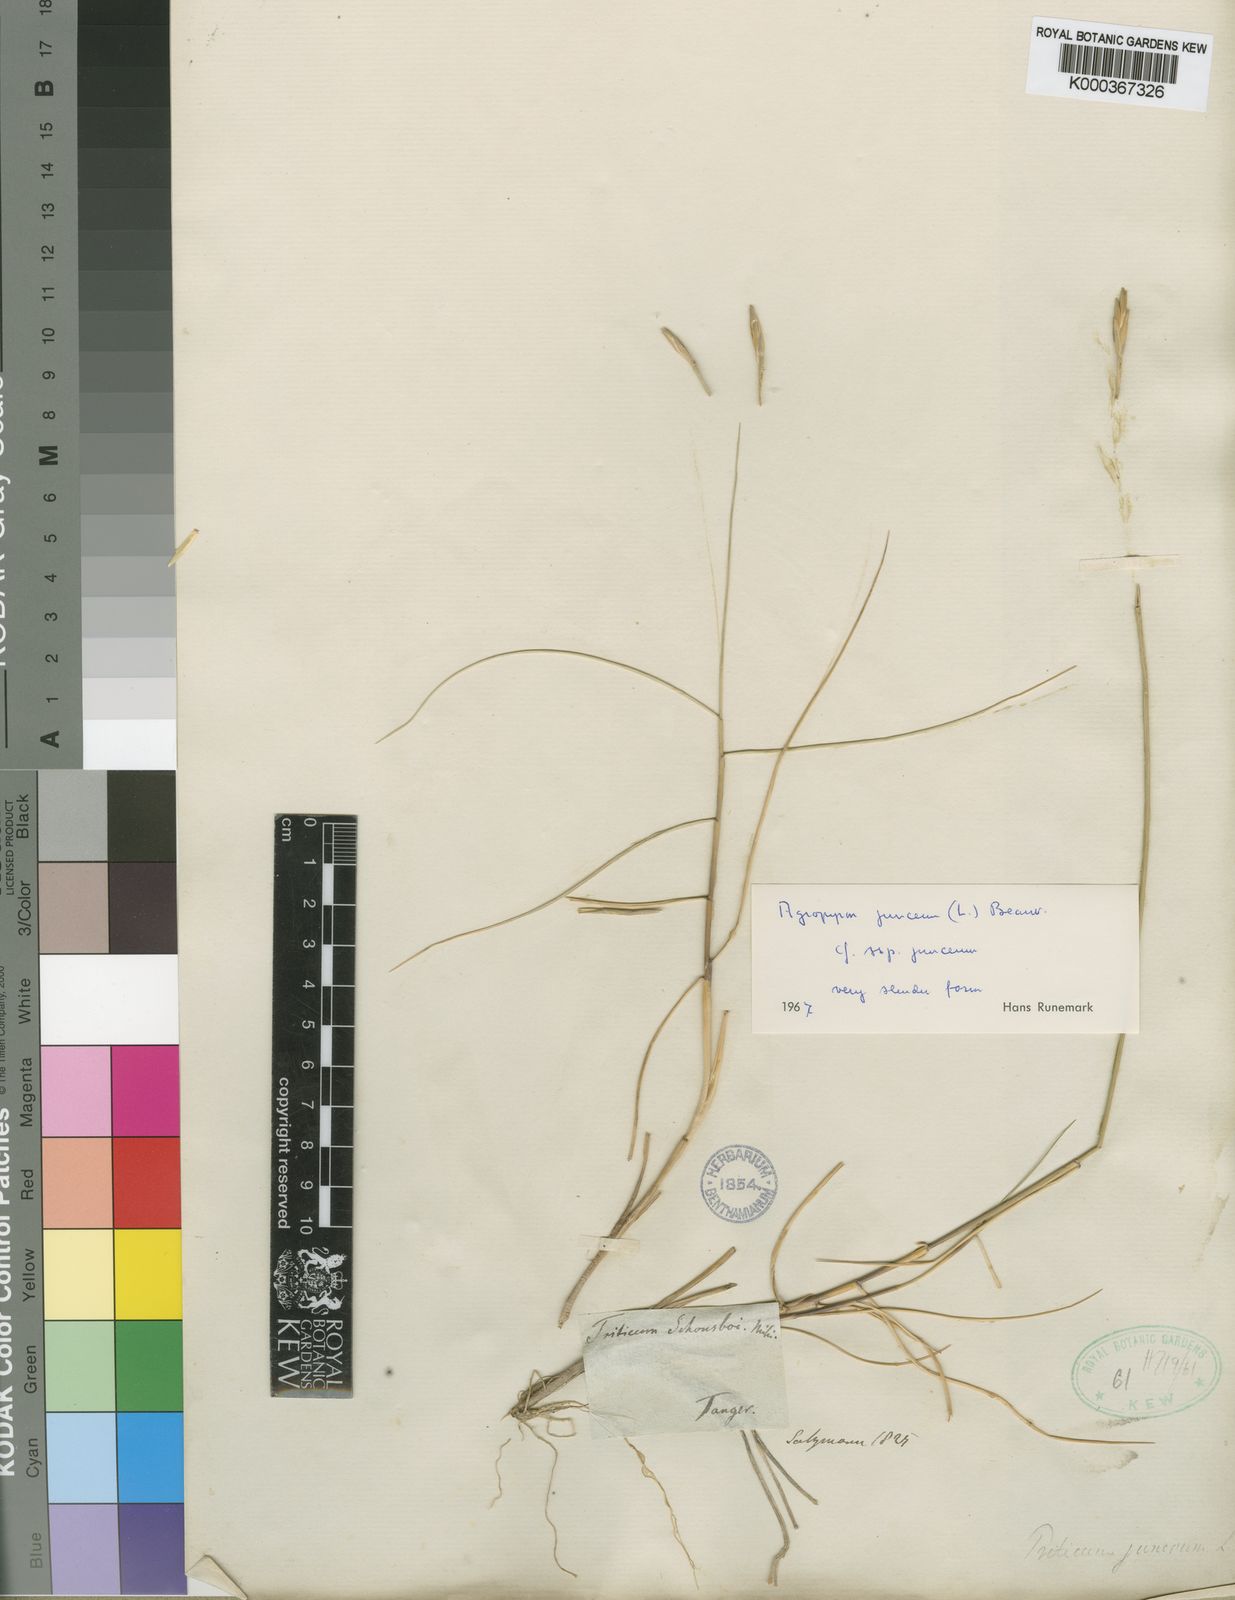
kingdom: Plantae
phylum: Tracheophyta
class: Liliopsida
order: Poales
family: Poaceae
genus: Thinopyrum
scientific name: Thinopyrum junceum
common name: Russian wheatgrass
